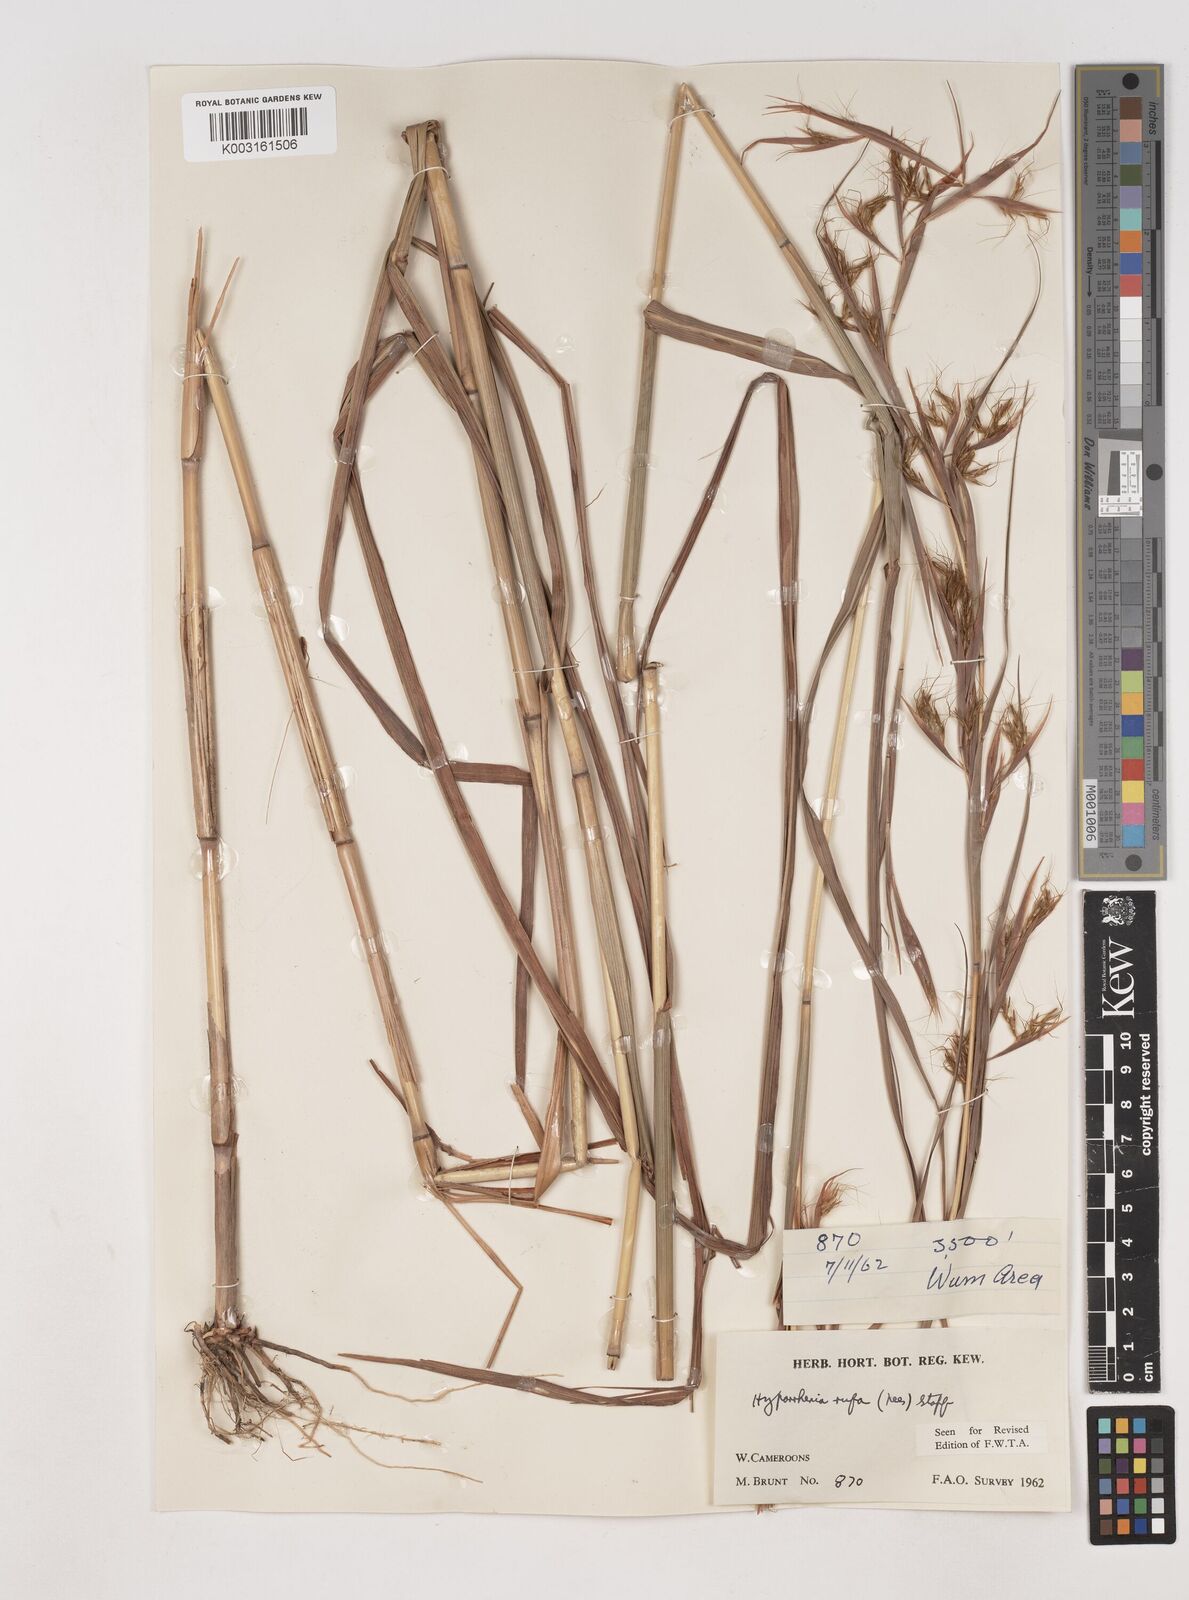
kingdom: Plantae
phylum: Tracheophyta
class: Liliopsida
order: Poales
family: Poaceae
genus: Hyparrhenia
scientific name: Hyparrhenia rufa
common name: Jaraguagrass
